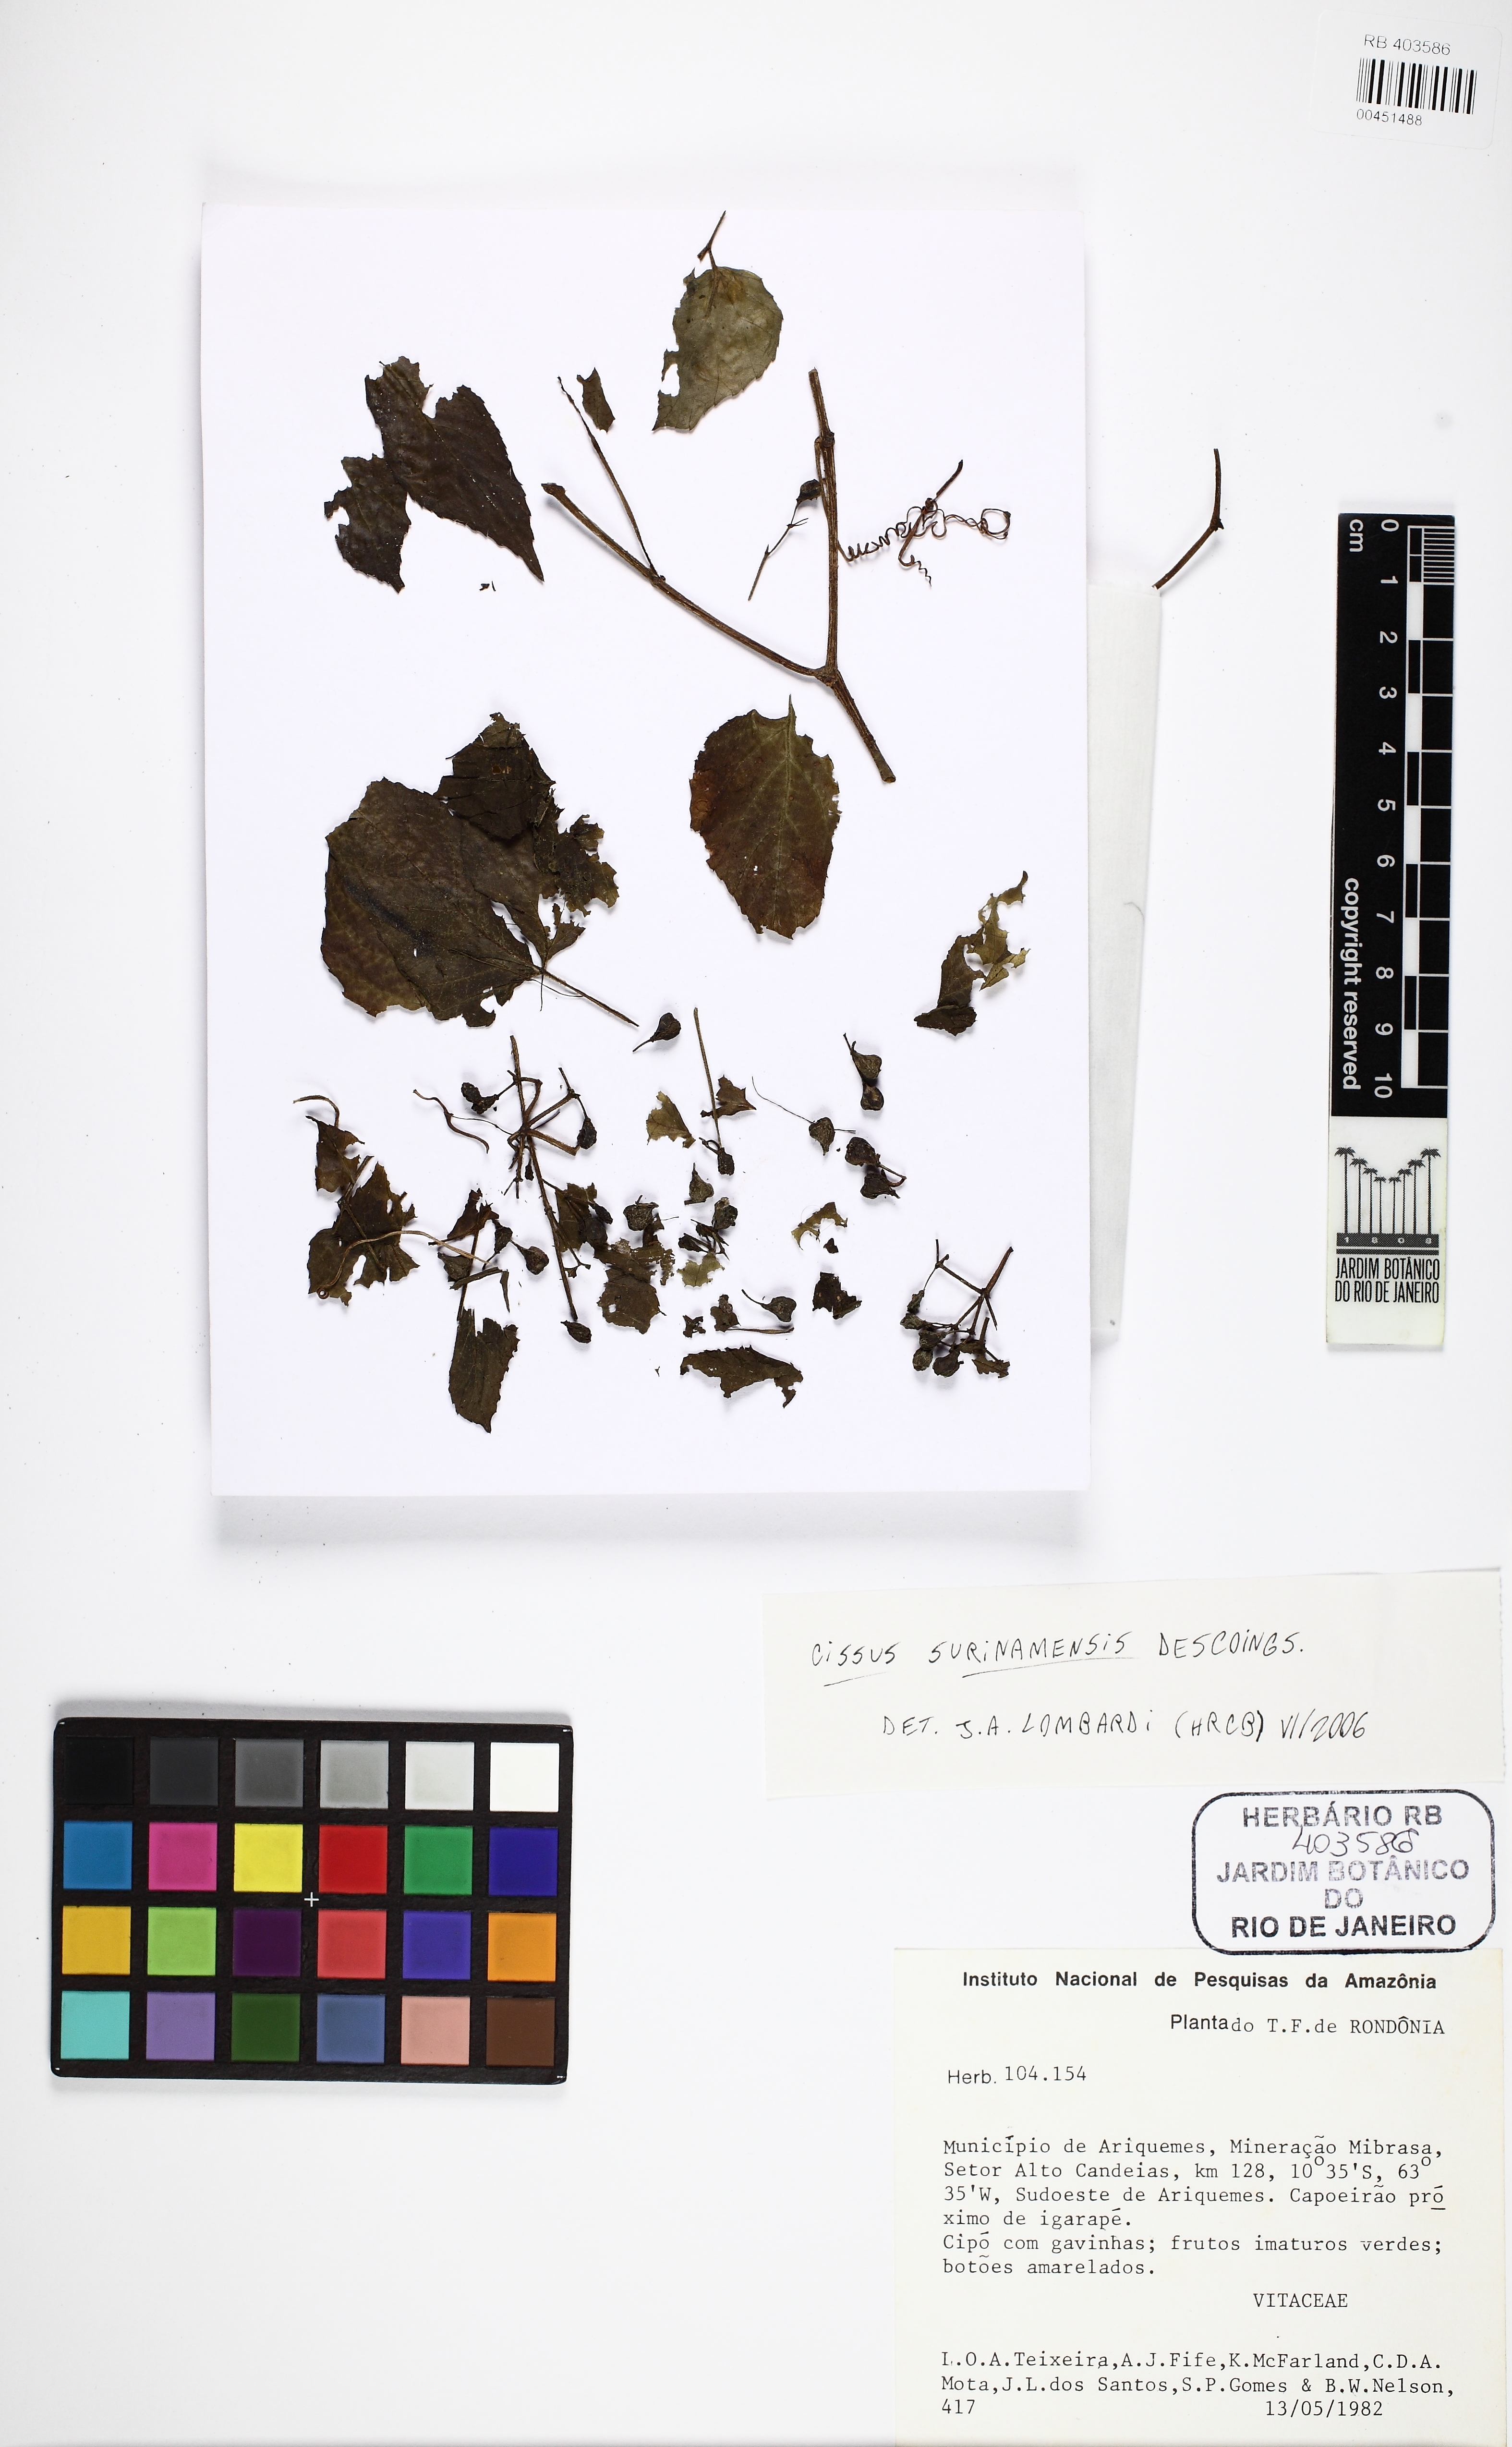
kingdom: Plantae
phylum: Tracheophyta
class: Magnoliopsida
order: Vitales
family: Vitaceae
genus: Cissus
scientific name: Cissus surinamensis
